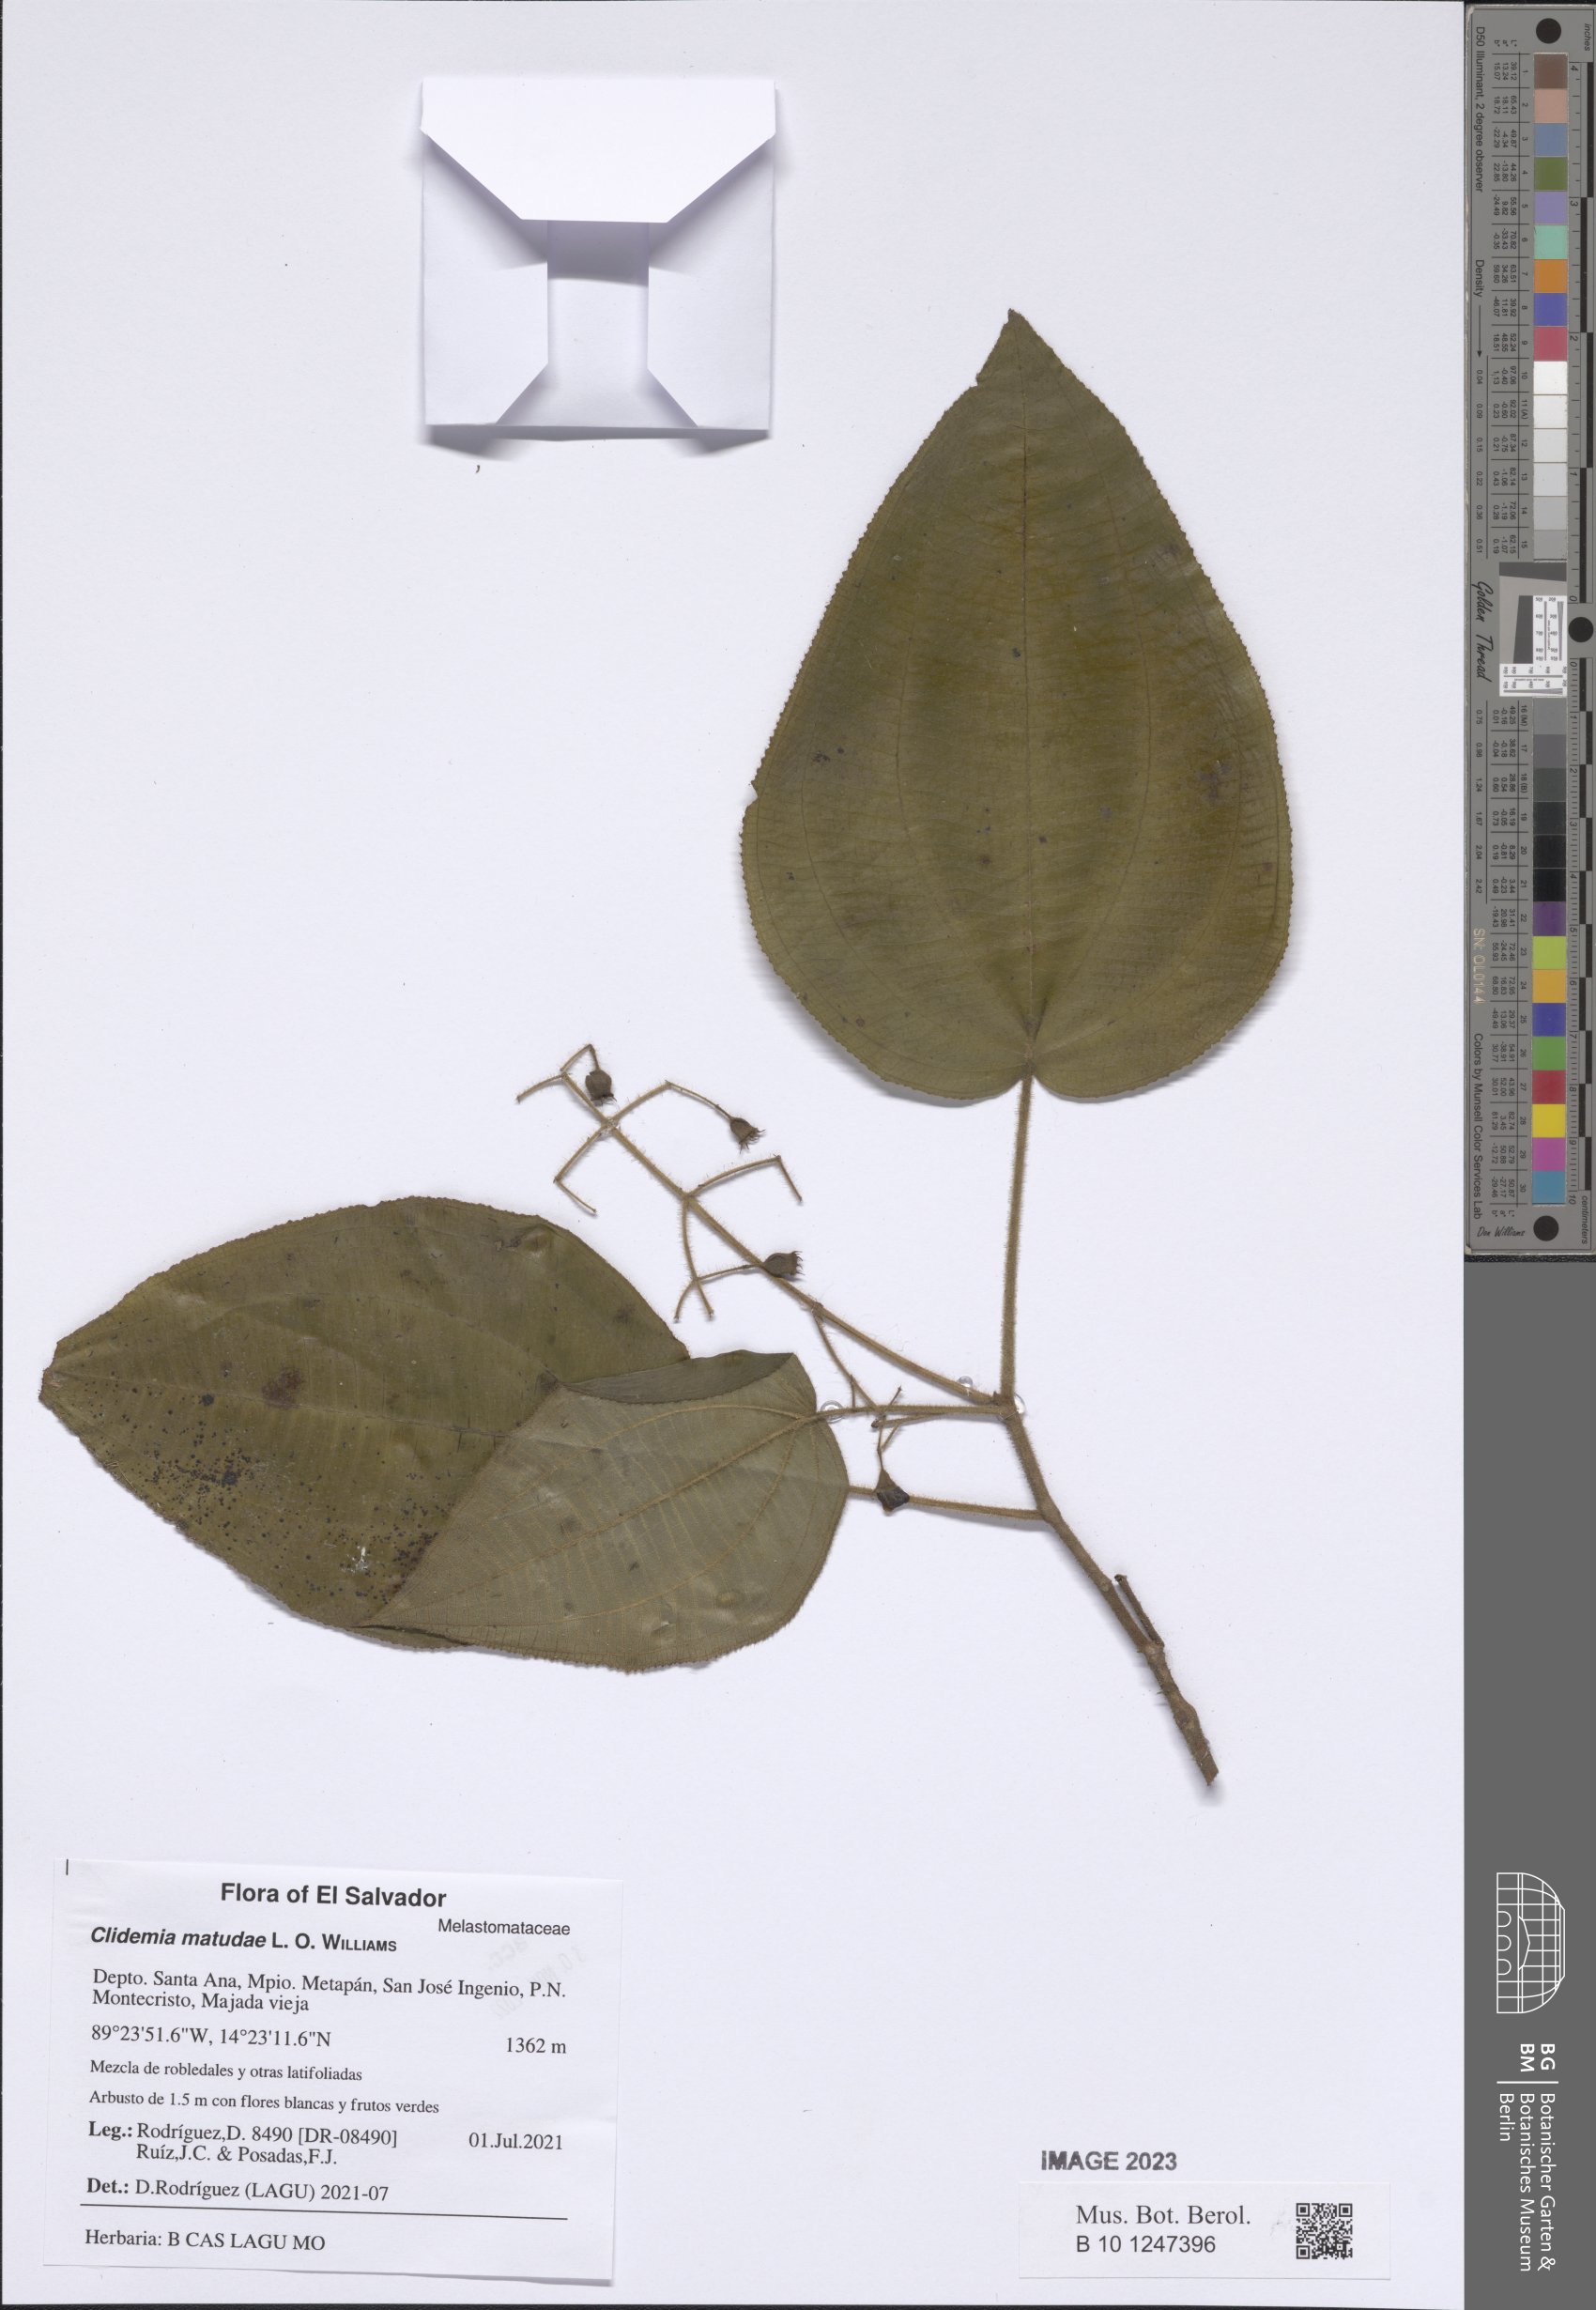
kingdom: Plantae
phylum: Tracheophyta
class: Magnoliopsida
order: Myrtales
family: Melastomataceae
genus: Miconia
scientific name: Miconia matudae
